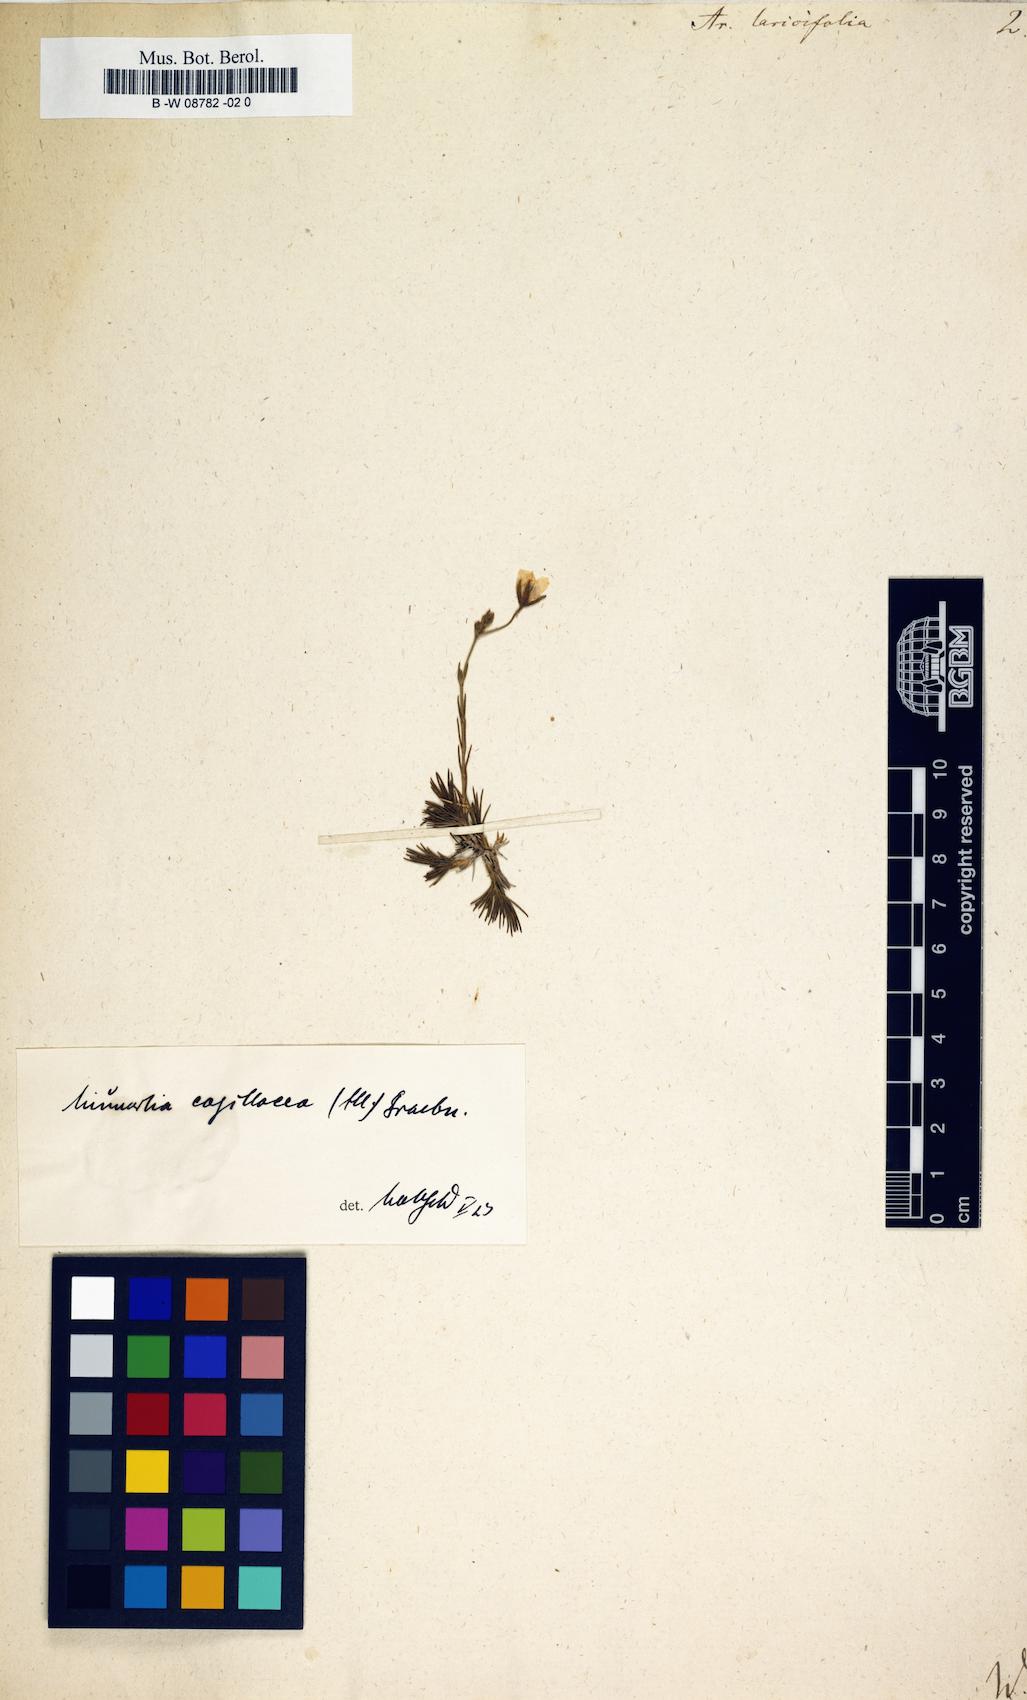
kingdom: Plantae
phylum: Tracheophyta
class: Magnoliopsida
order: Caryophyllales
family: Caryophyllaceae
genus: Cherleria
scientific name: Cherleria laricifolia
